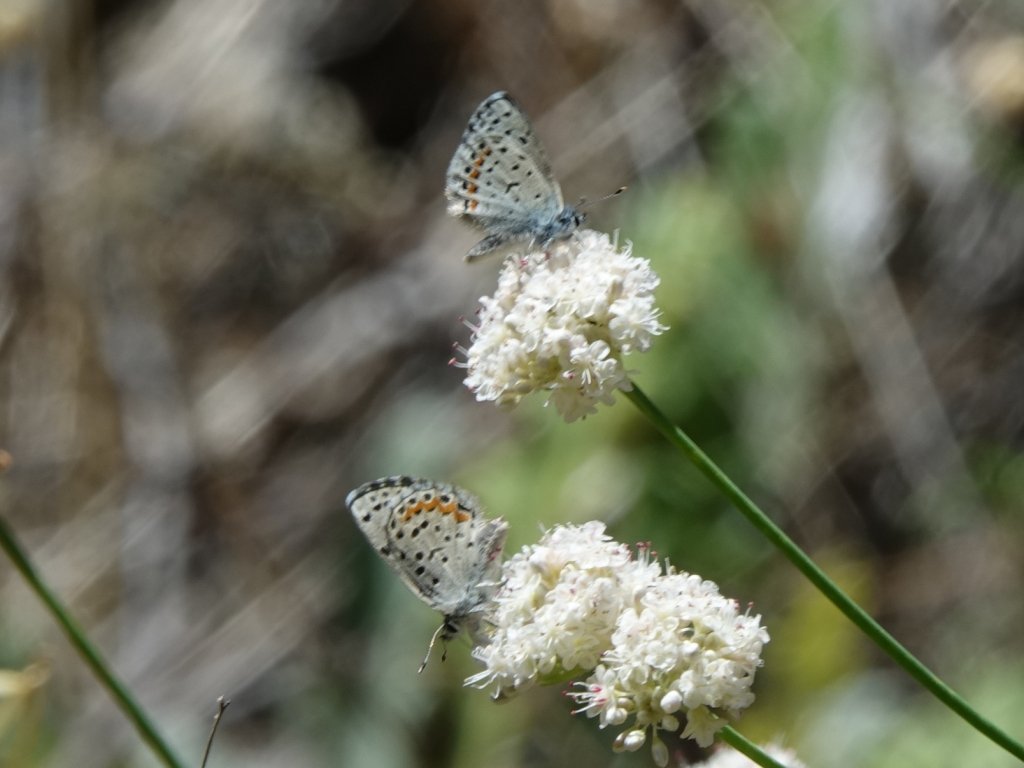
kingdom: Animalia
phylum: Arthropoda
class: Insecta
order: Lepidoptera
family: Lycaenidae
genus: Euphilotes
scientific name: Euphilotes enoptes
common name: Dotted Blue
